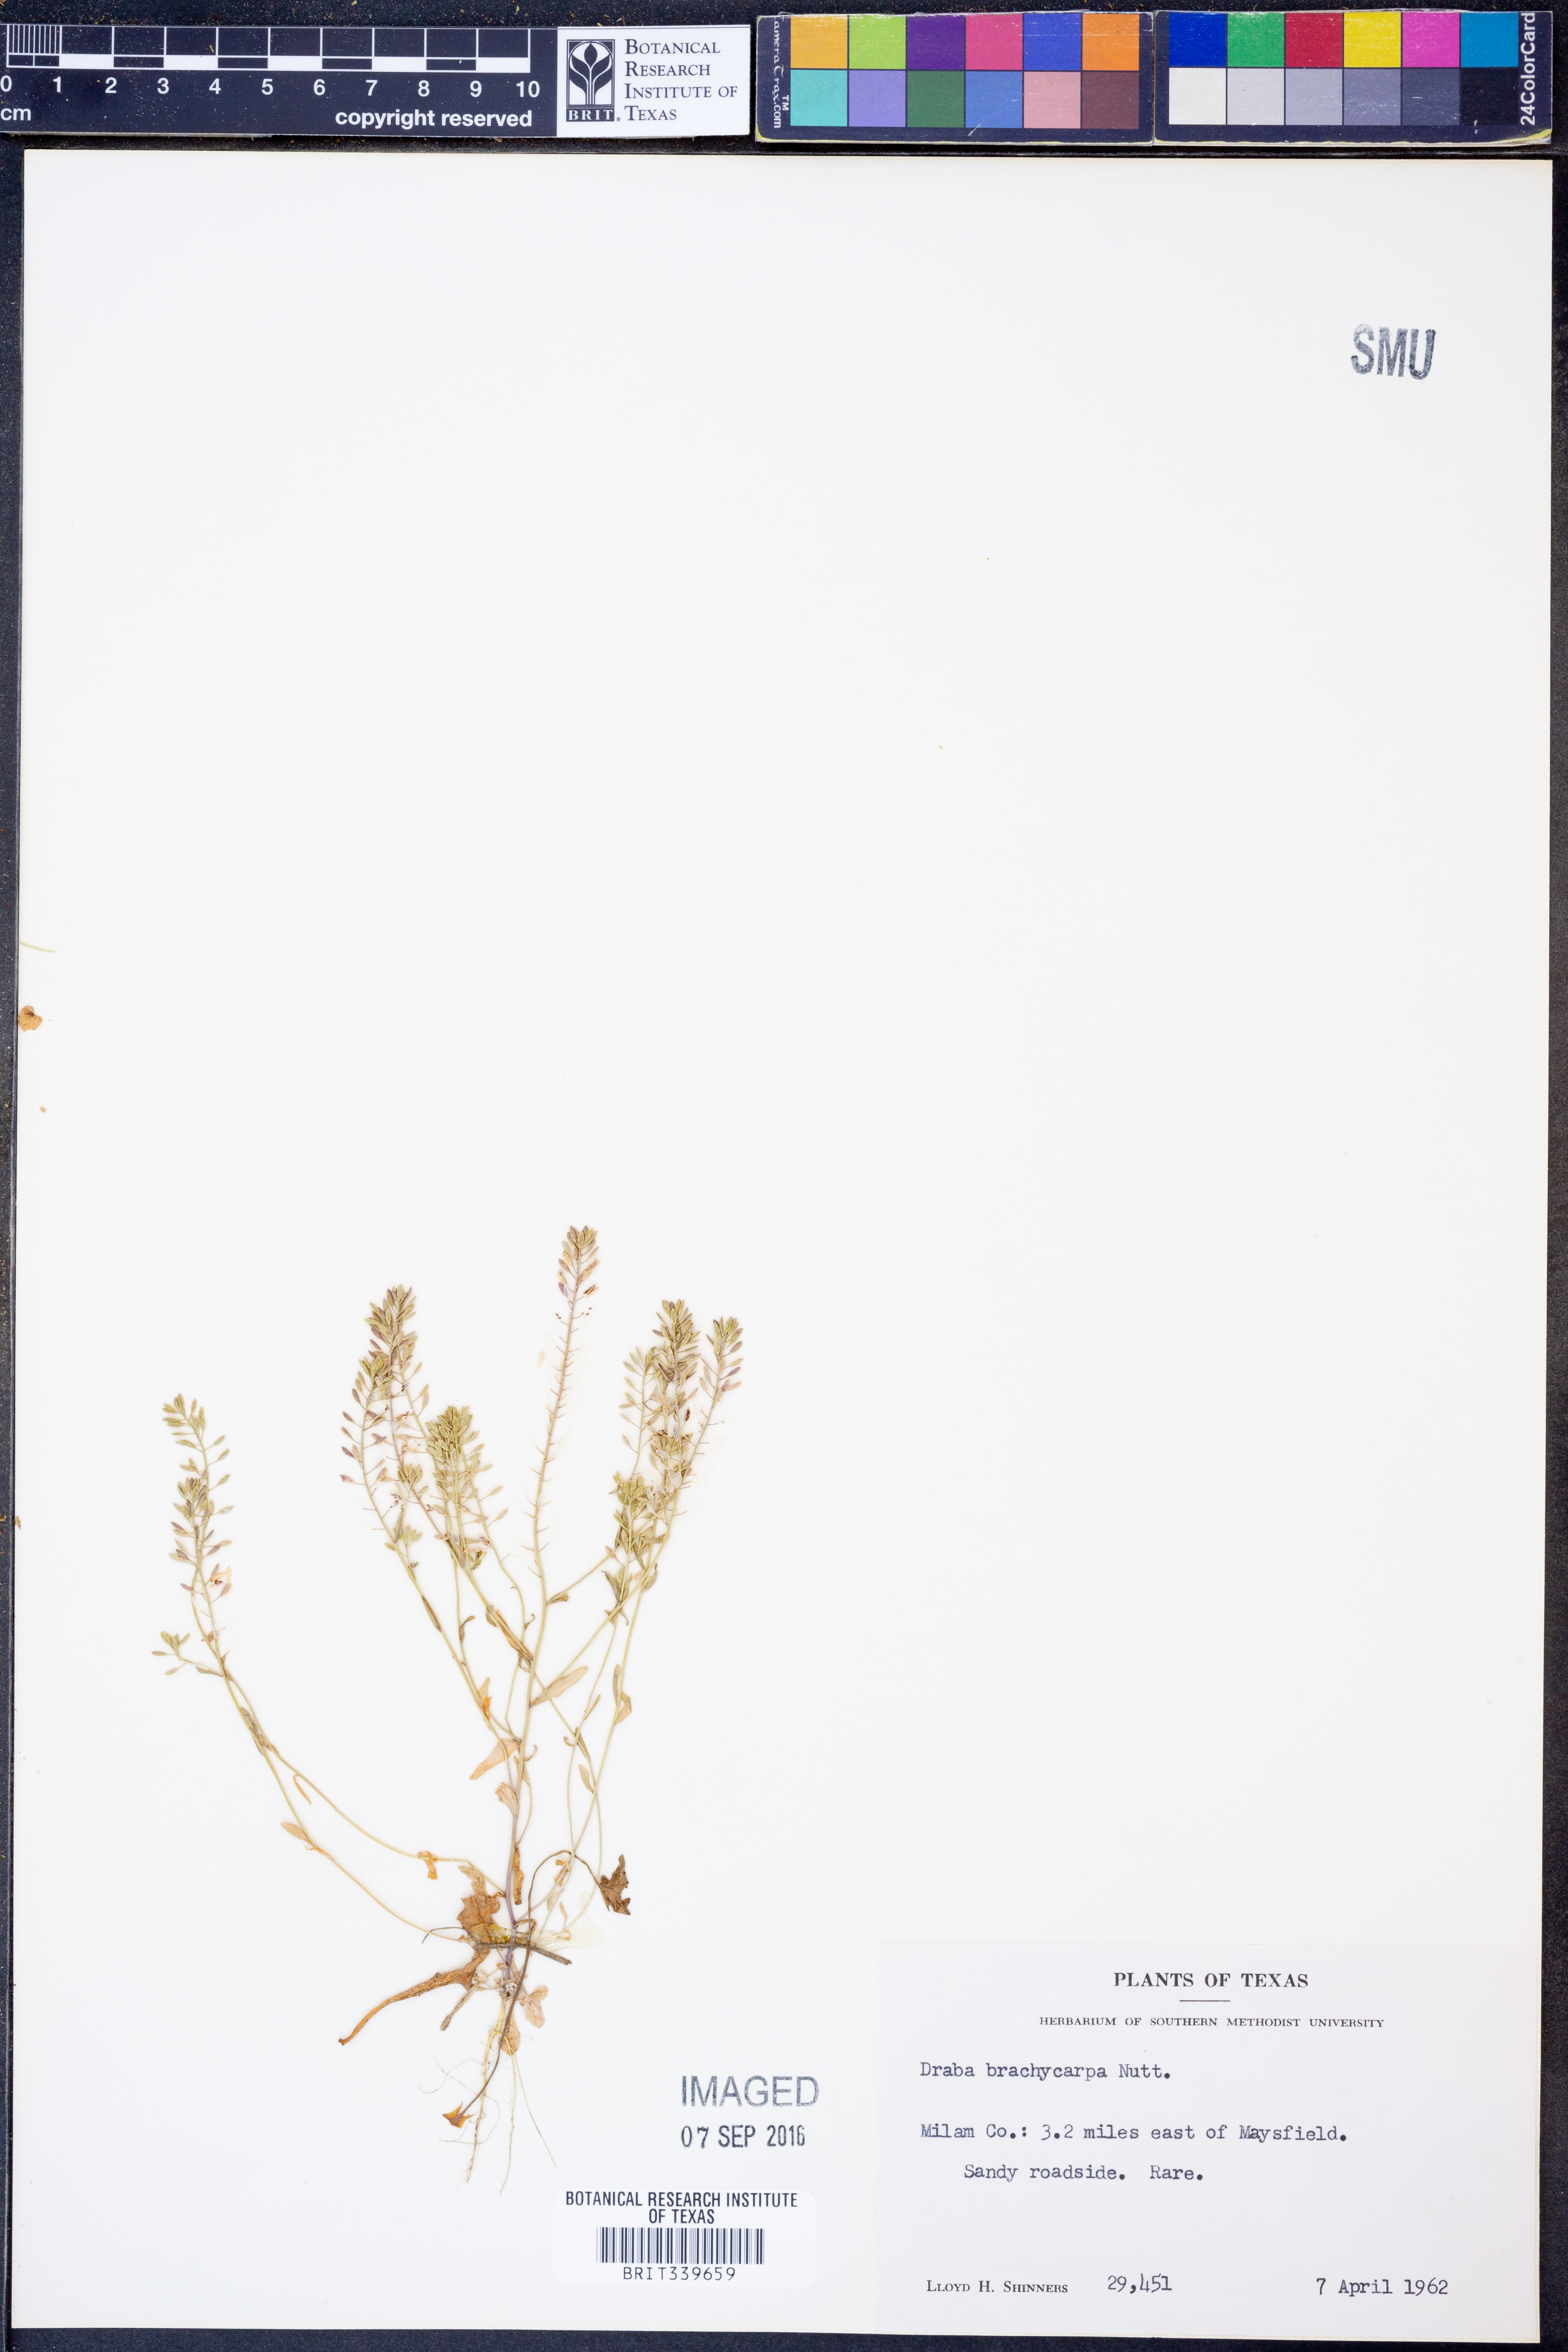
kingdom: Plantae
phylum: Tracheophyta
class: Magnoliopsida
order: Brassicales
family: Brassicaceae
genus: Abdra
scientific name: Abdra brachycarpa
